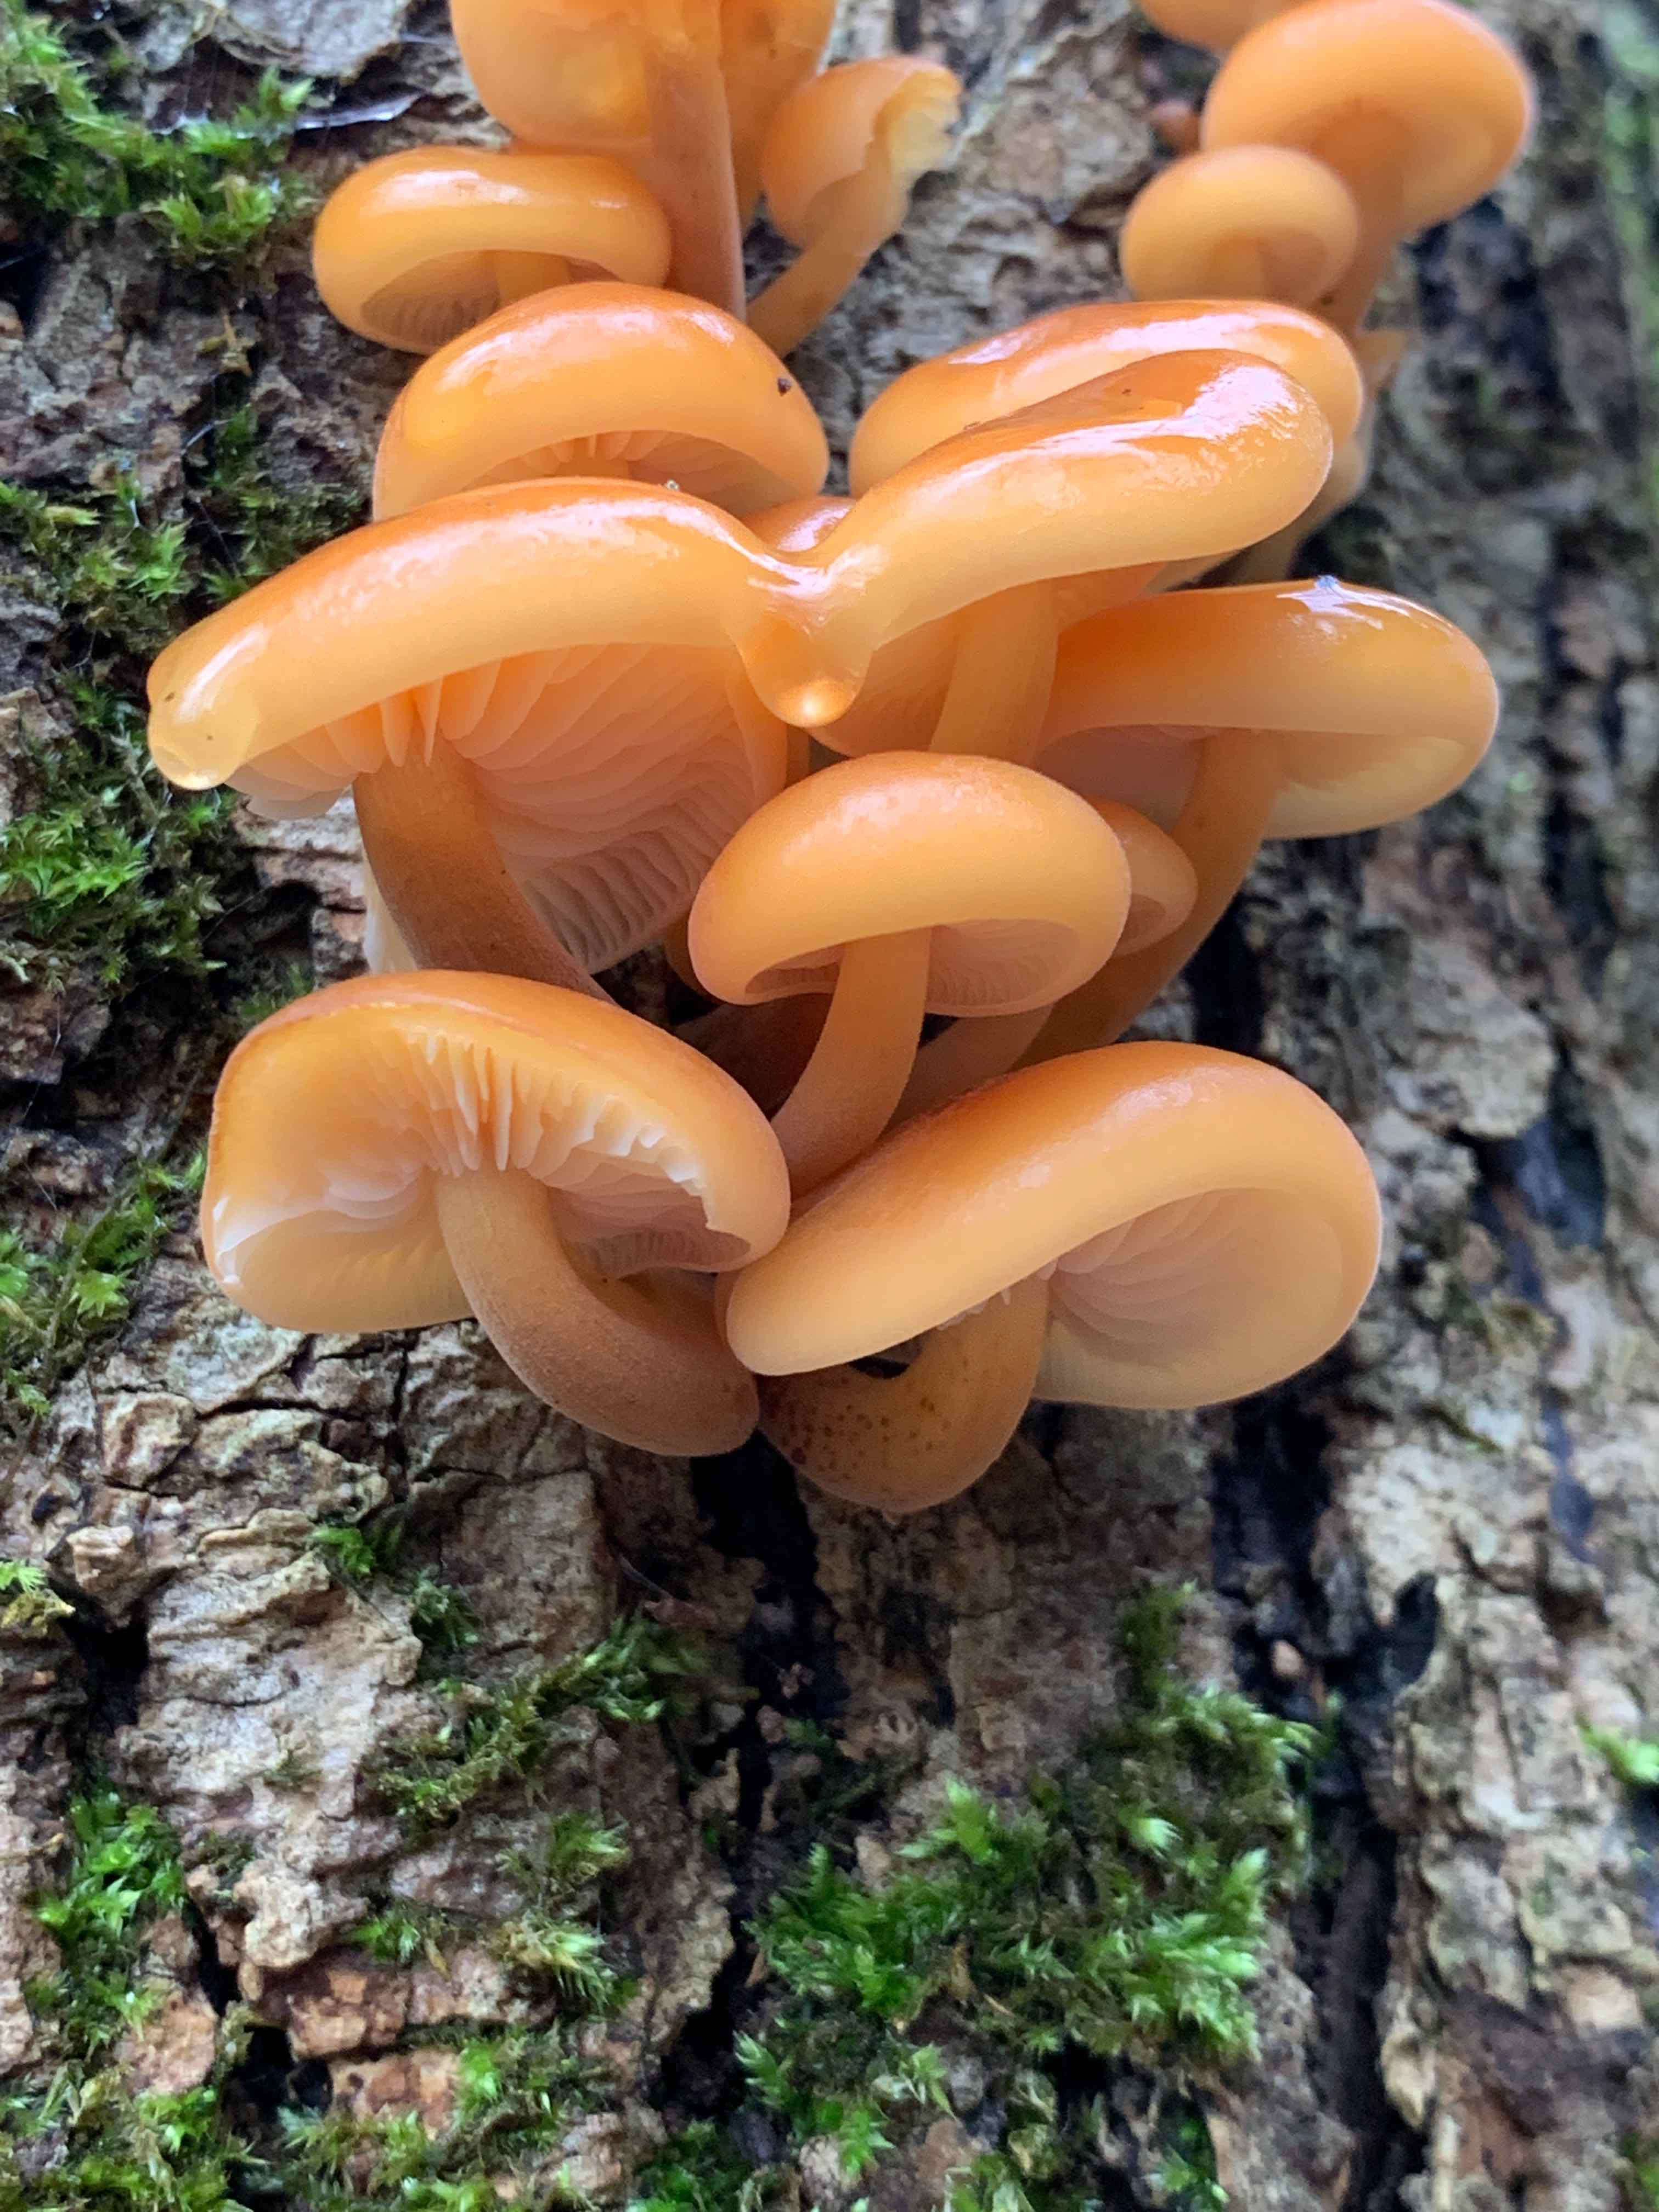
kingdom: Fungi
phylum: Basidiomycota
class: Agaricomycetes
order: Agaricales
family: Physalacriaceae
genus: Flammulina
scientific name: Flammulina
